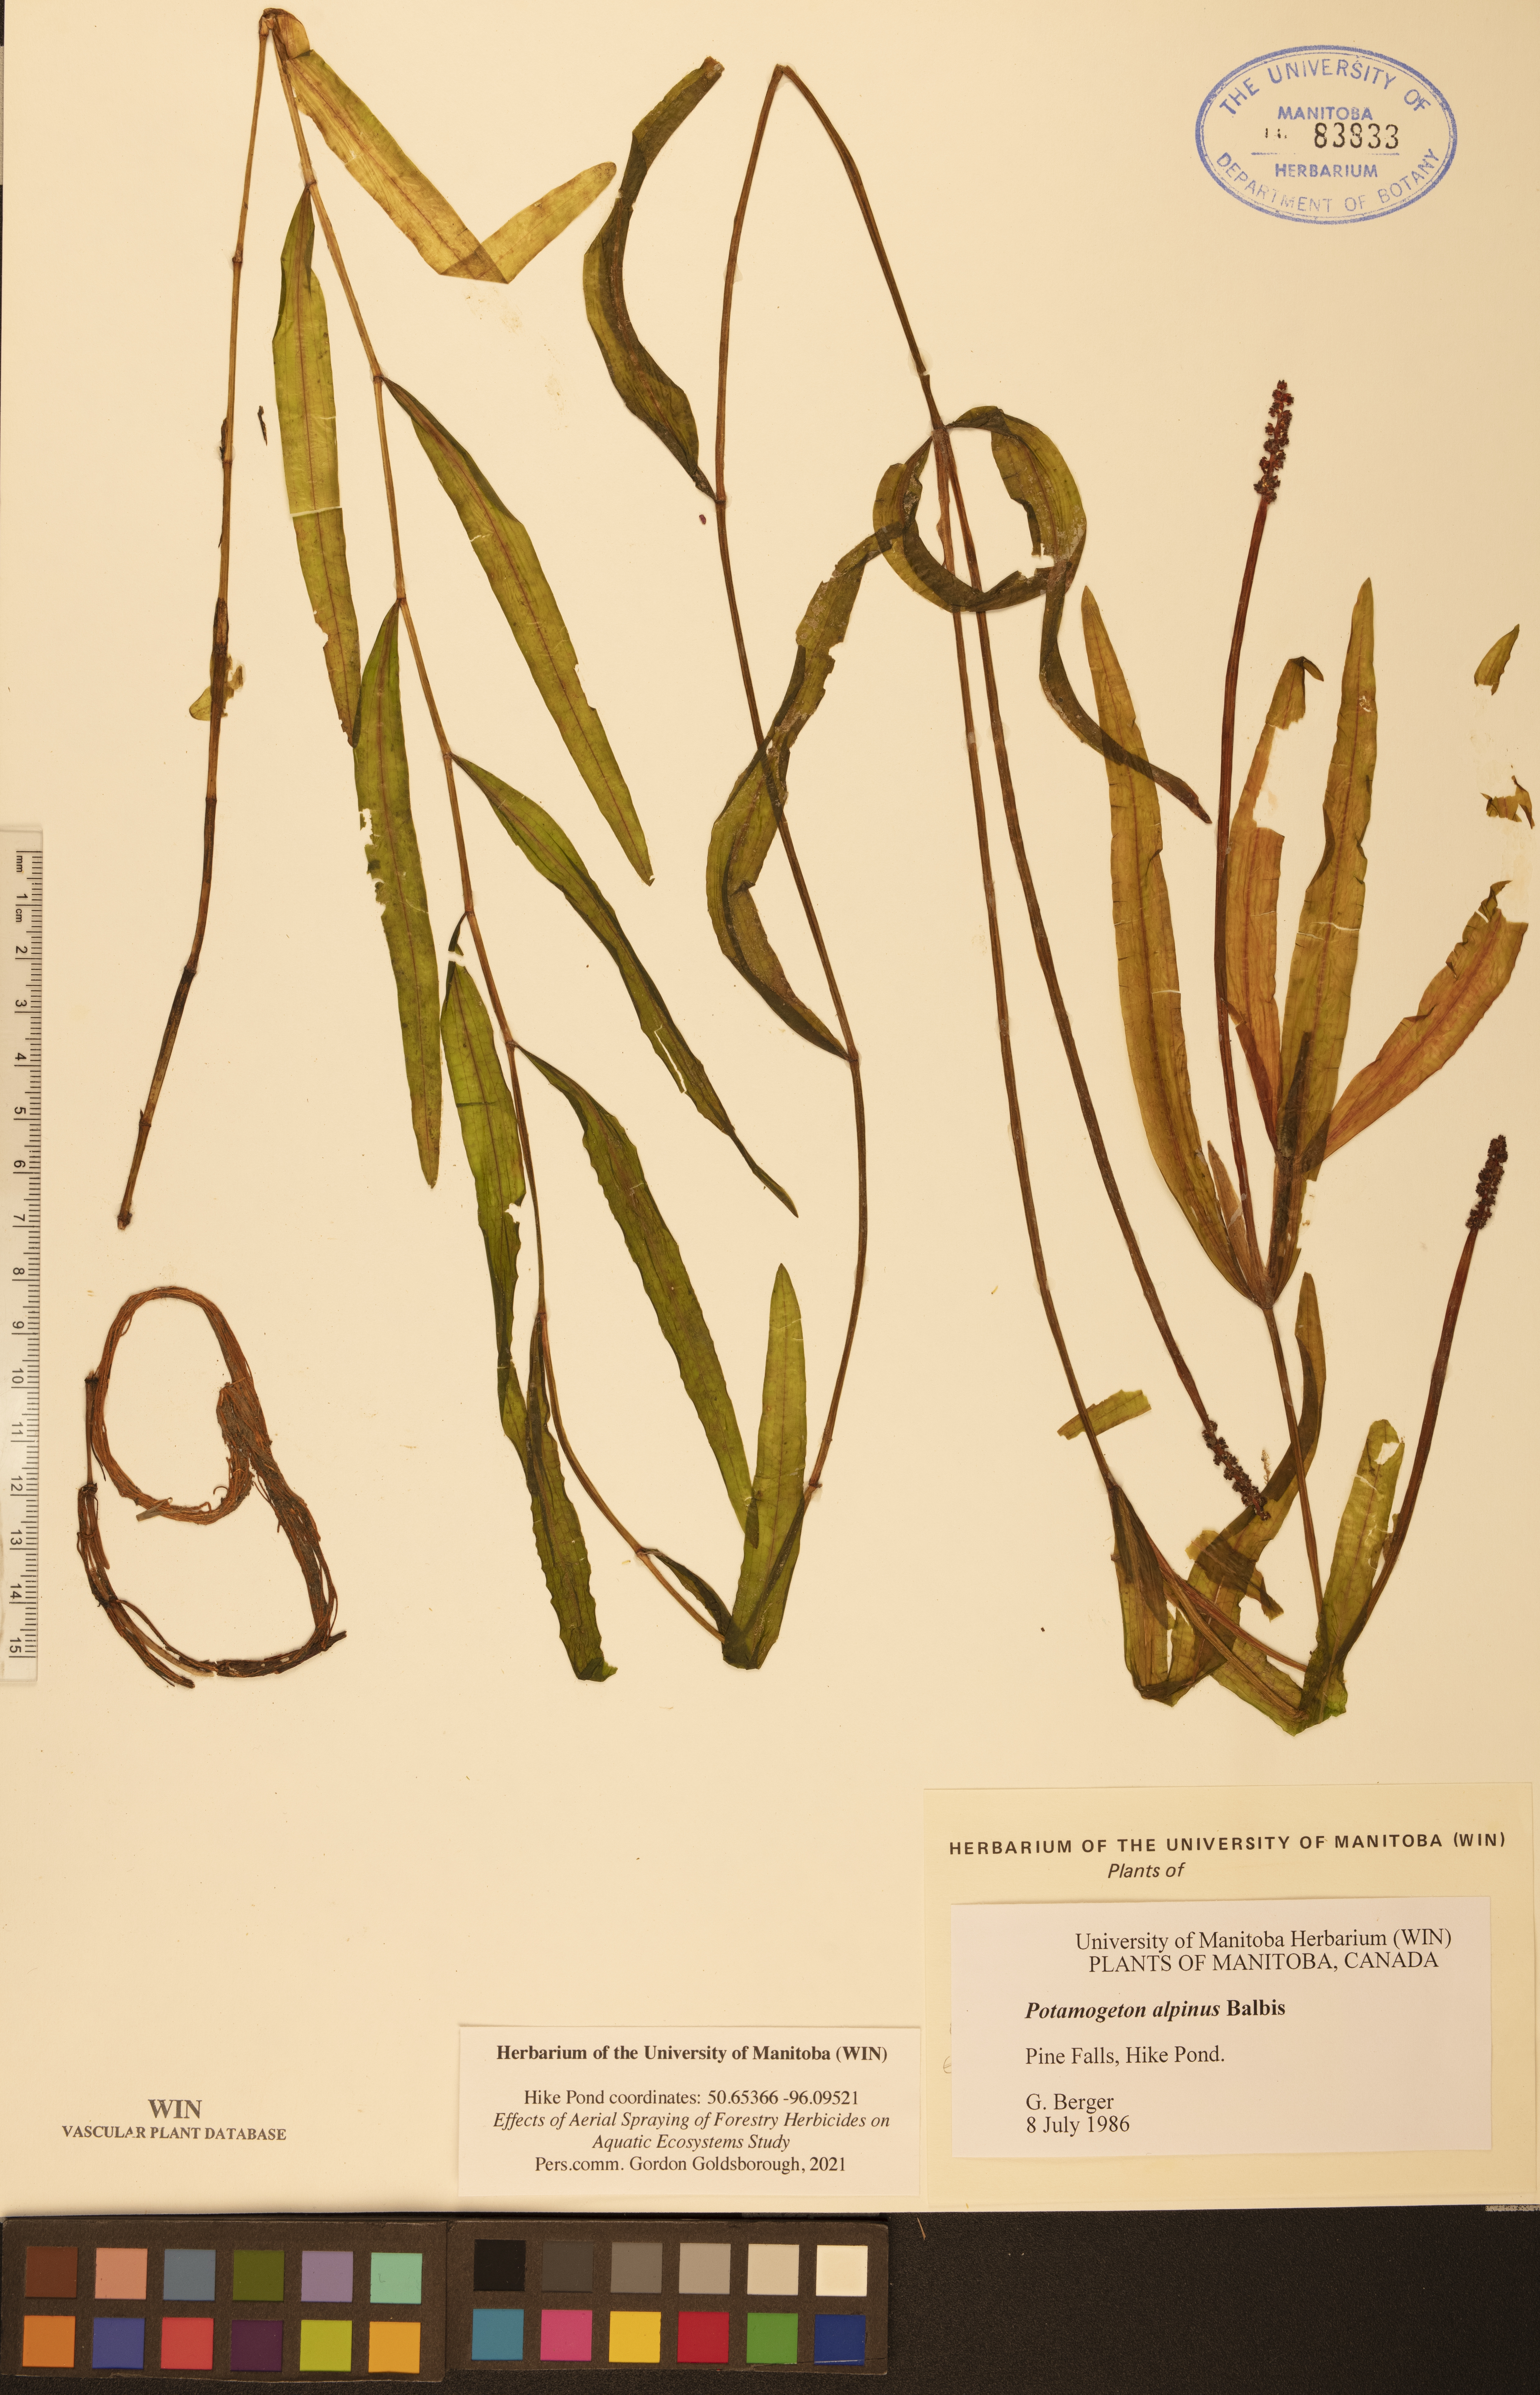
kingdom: Plantae
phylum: Tracheophyta
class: Liliopsida
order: Alismatales
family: Potamogetonaceae
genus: Potamogeton
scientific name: Potamogeton alpinus
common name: Red pondweed
